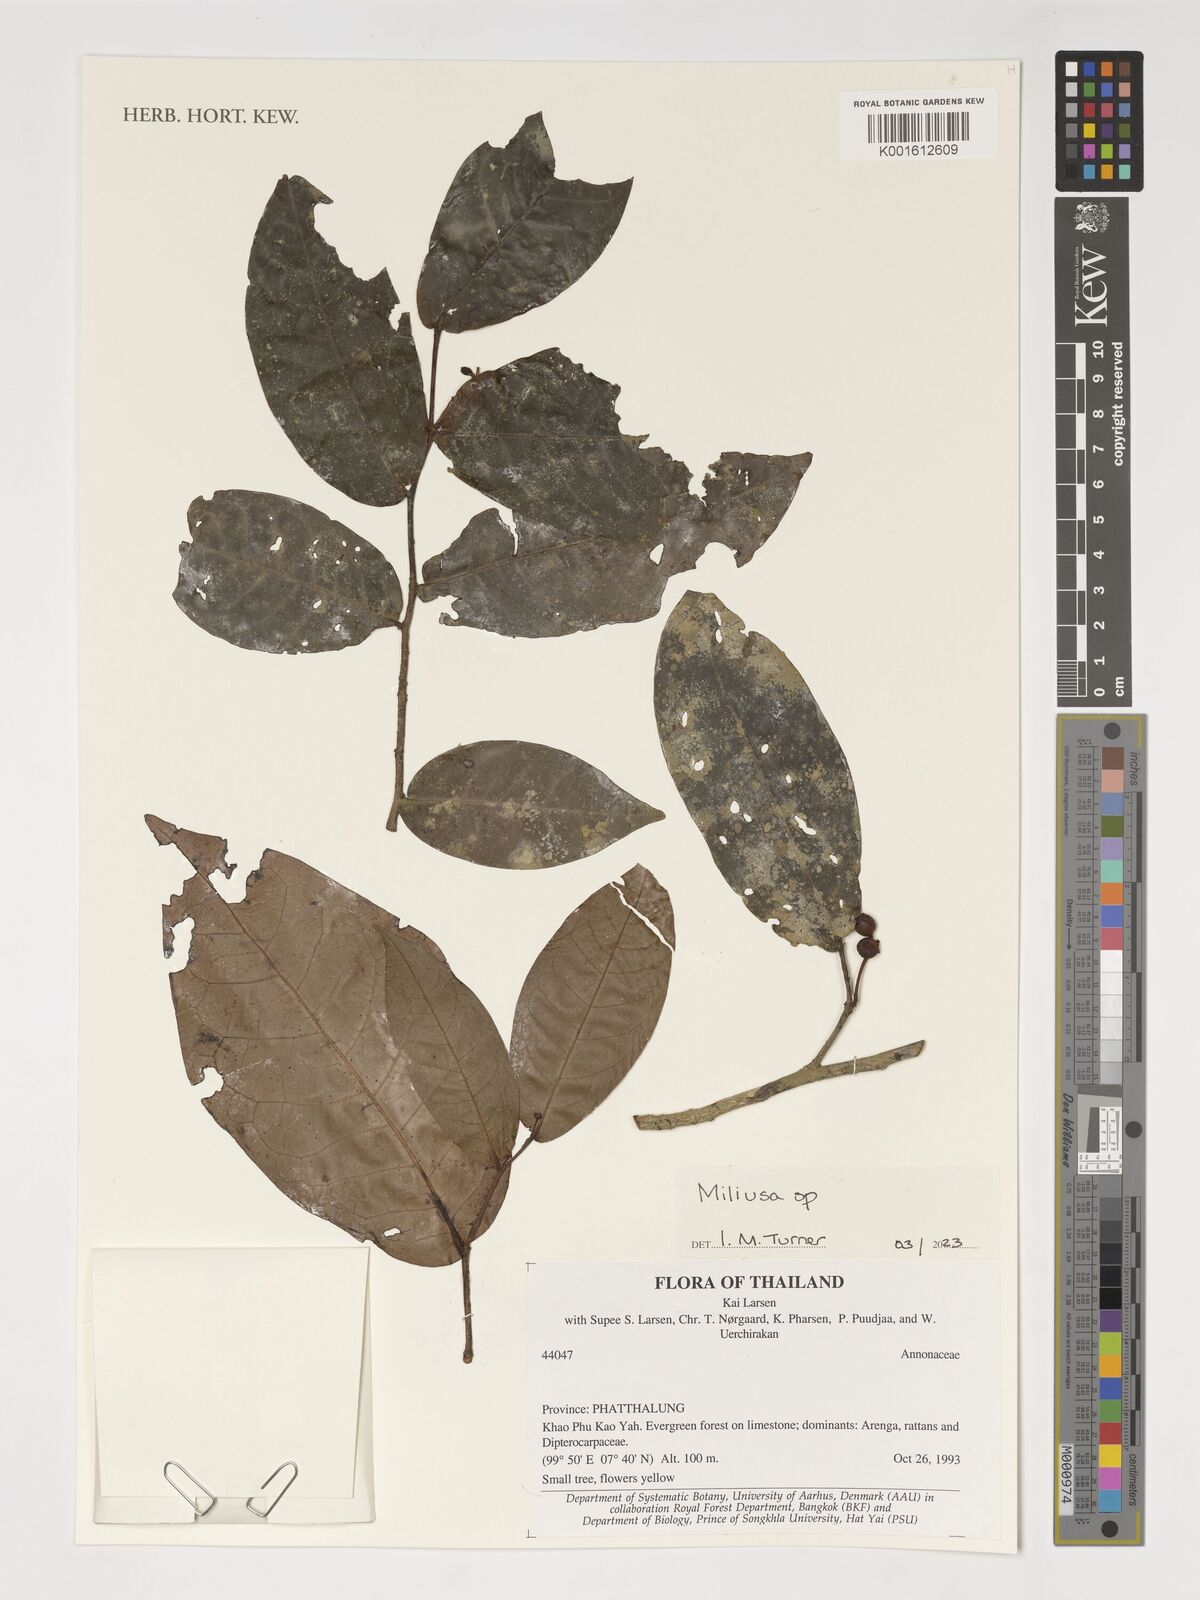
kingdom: Plantae
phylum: Tracheophyta
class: Magnoliopsida
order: Magnoliales
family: Annonaceae
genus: Miliusa
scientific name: Miliusa
